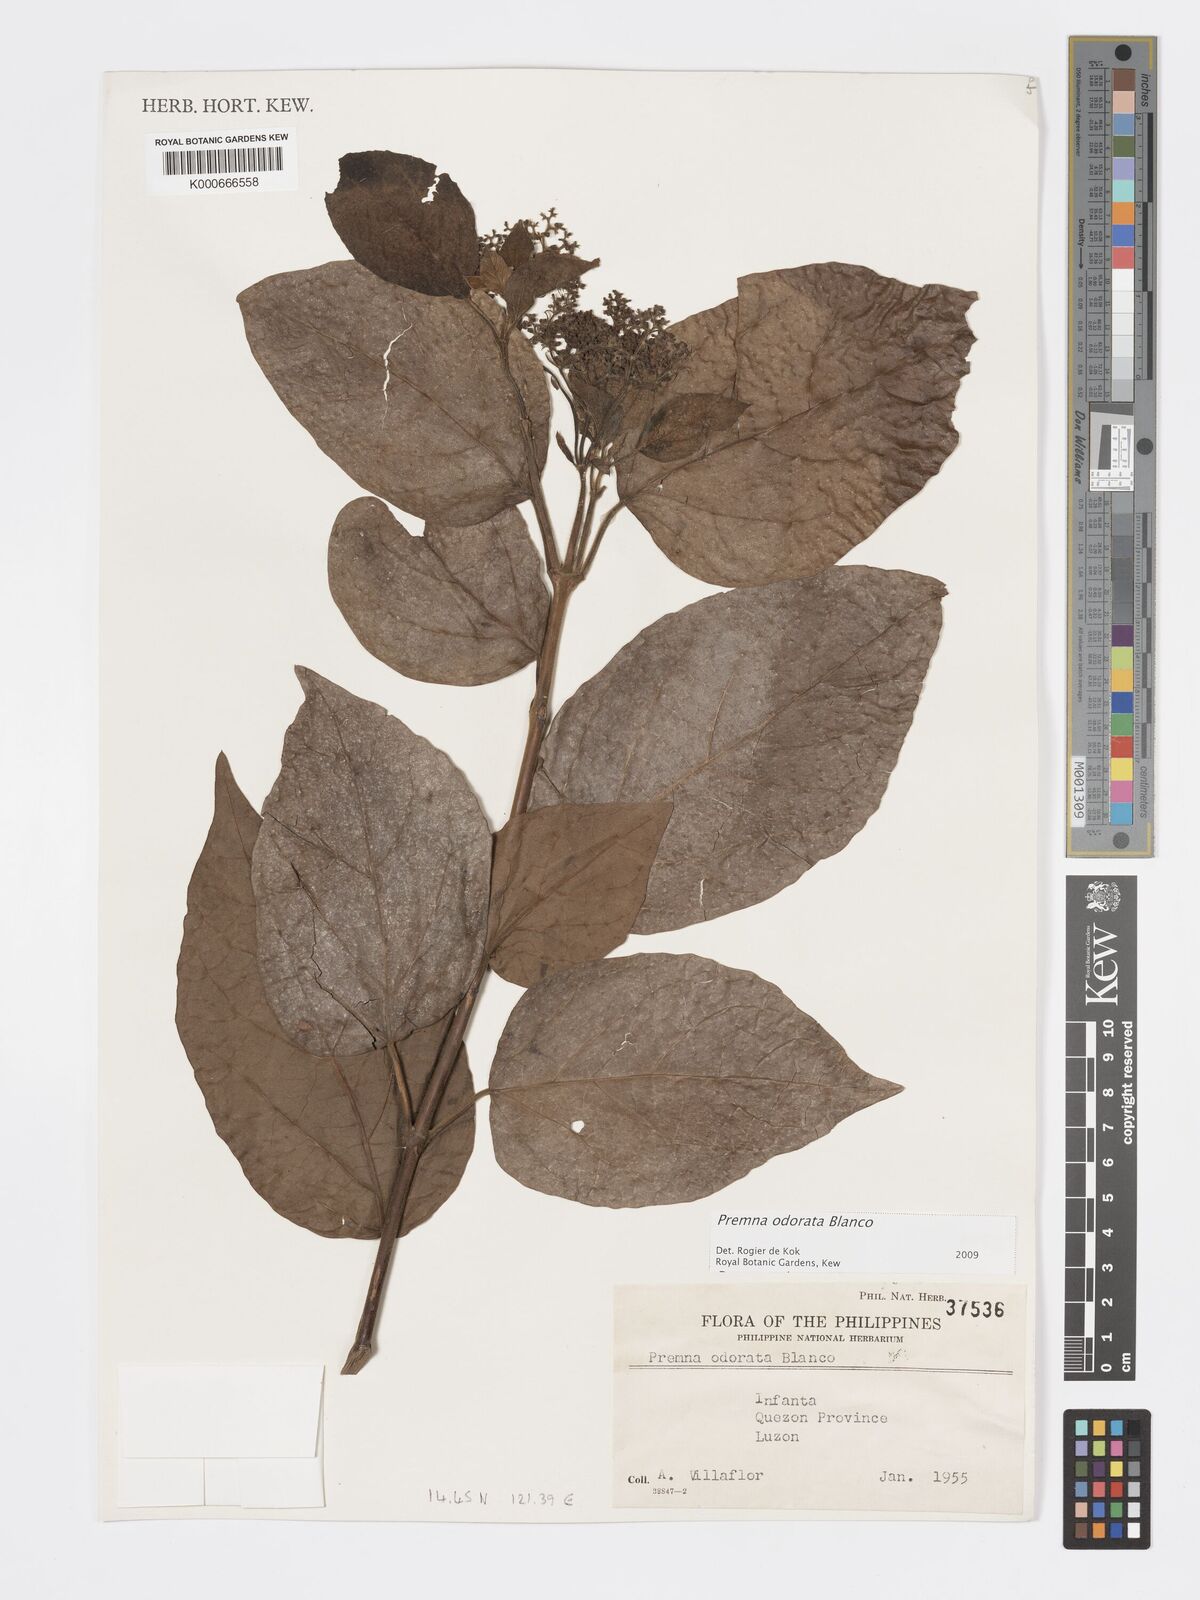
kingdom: Plantae
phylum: Tracheophyta
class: Magnoliopsida
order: Lamiales
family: Lamiaceae
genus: Premna
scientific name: Premna odorata
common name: Fragrant premna
